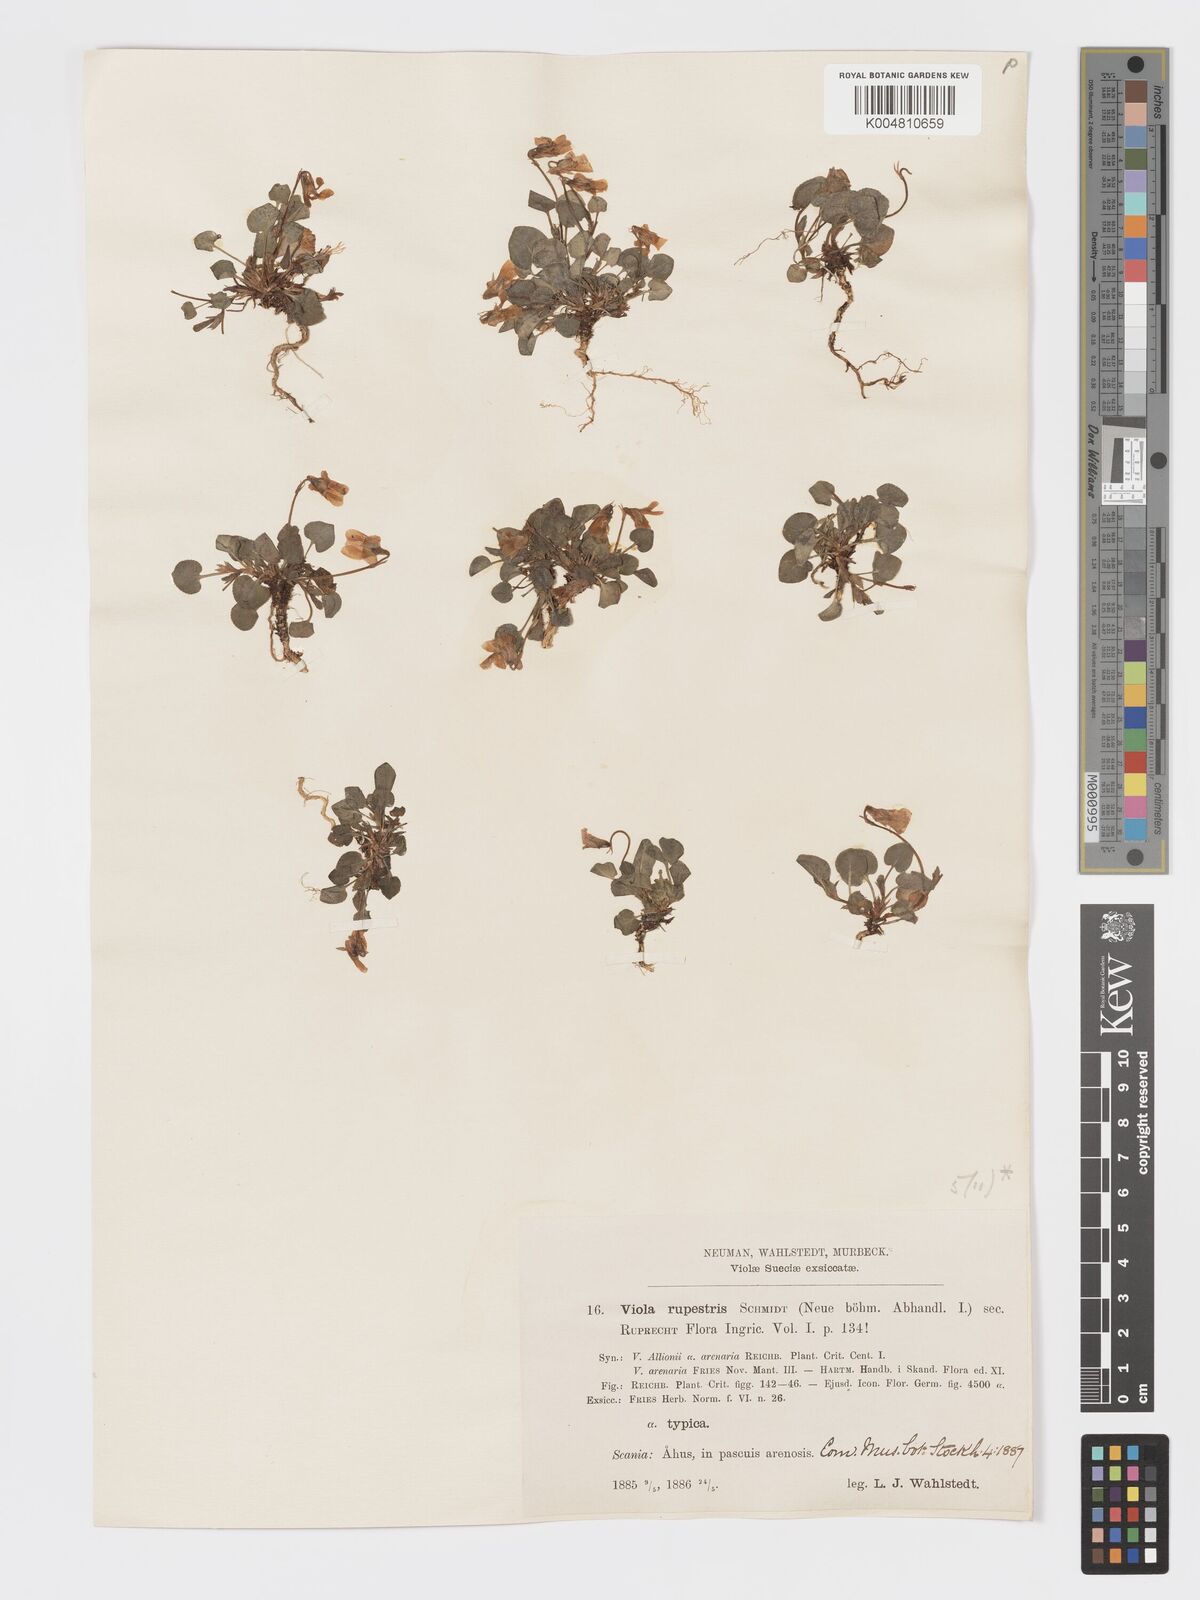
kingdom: Plantae
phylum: Tracheophyta
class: Magnoliopsida
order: Malpighiales
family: Violaceae
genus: Viola
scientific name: Viola rupestris
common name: Teesdale violet
